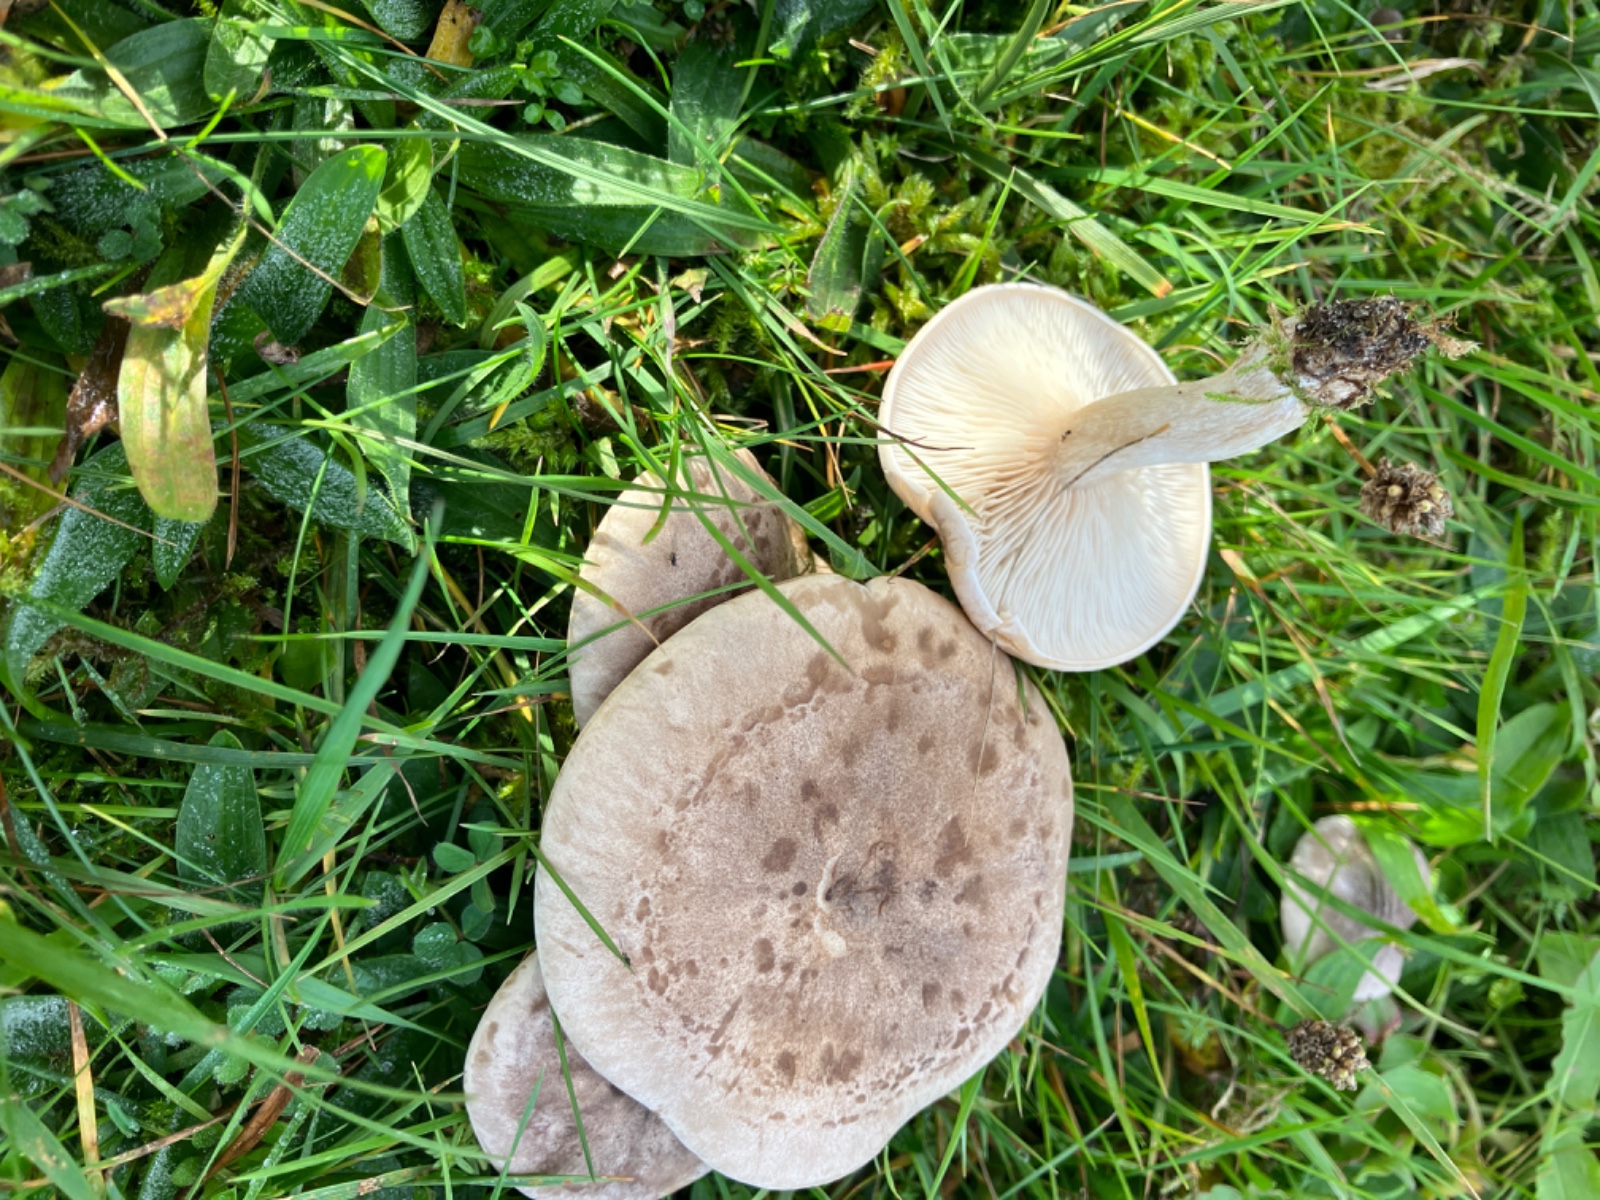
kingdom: Fungi
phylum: Basidiomycota
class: Agaricomycetes
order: Agaricales
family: Tricholomataceae
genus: Lepista
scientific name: Lepista panaeolus
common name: marmoreret hekseringshat
